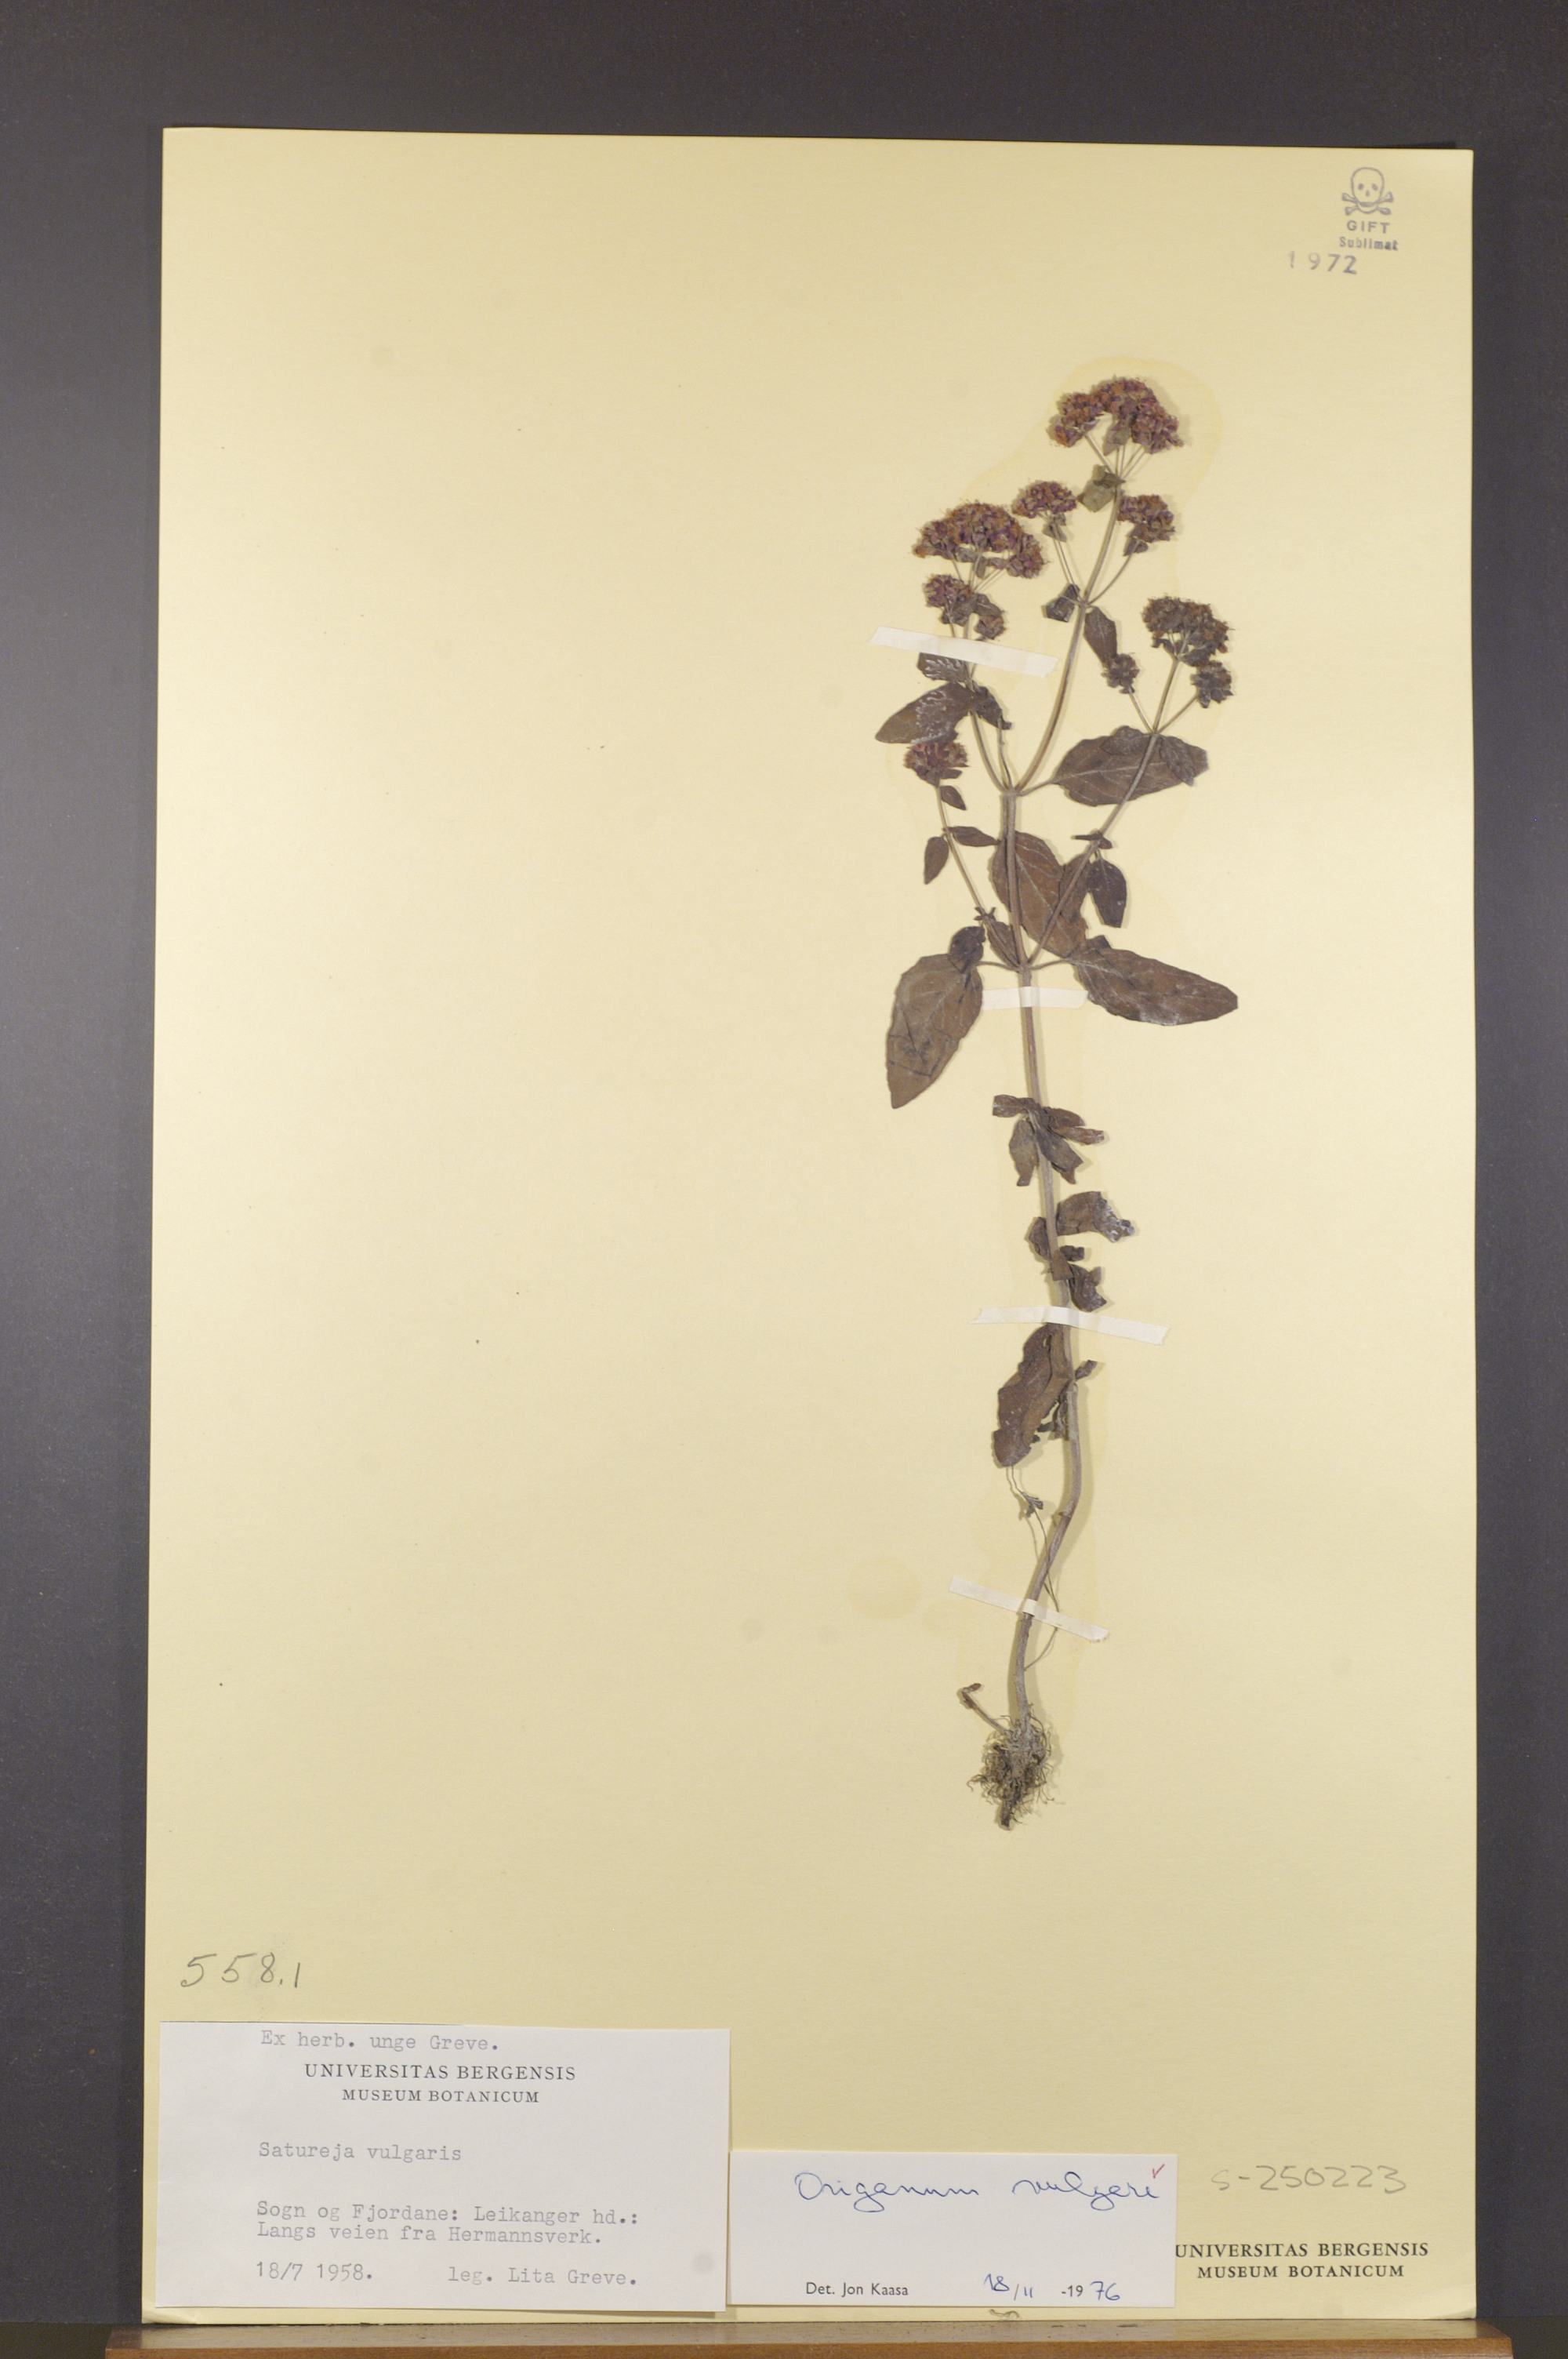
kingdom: Plantae
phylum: Tracheophyta
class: Magnoliopsida
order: Lamiales
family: Lamiaceae
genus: Origanum
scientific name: Origanum vulgare
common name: Wild marjoram
